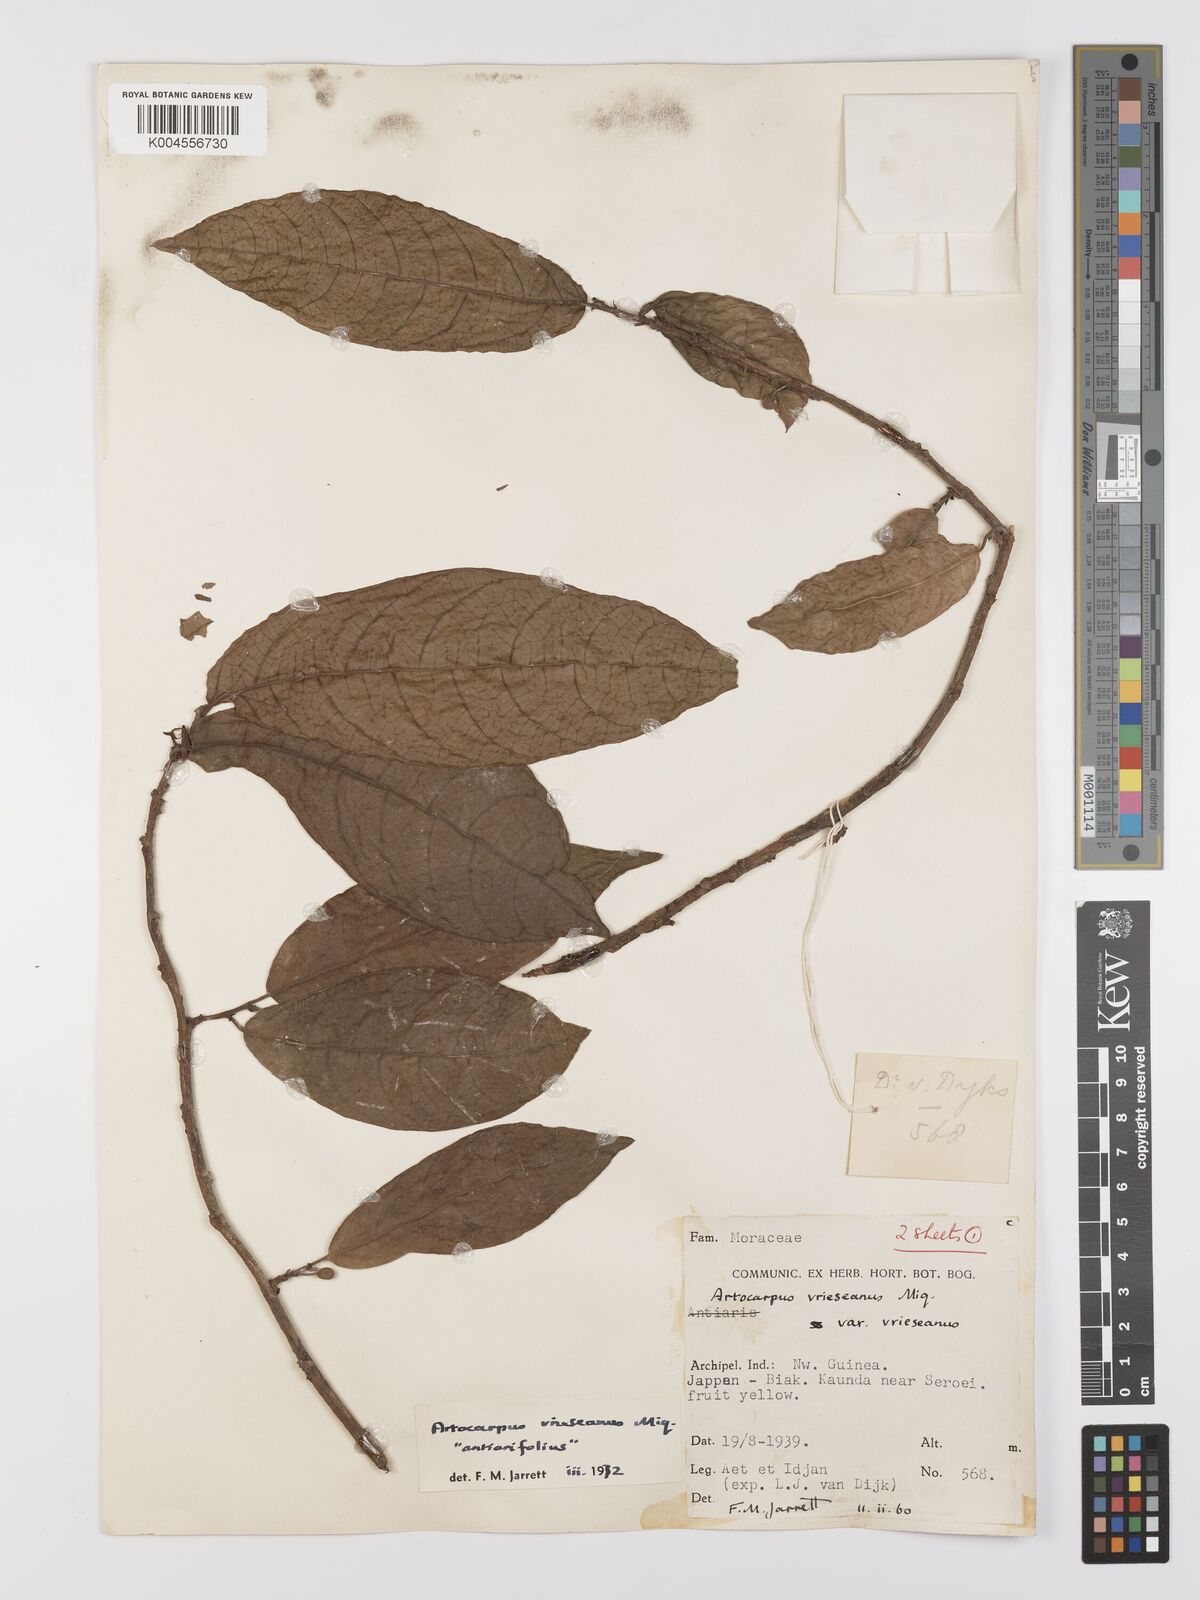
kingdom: Plantae
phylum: Tracheophyta
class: Magnoliopsida
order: Rosales
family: Moraceae
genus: Artocarpus
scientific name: Artocarpus vrieseanus
